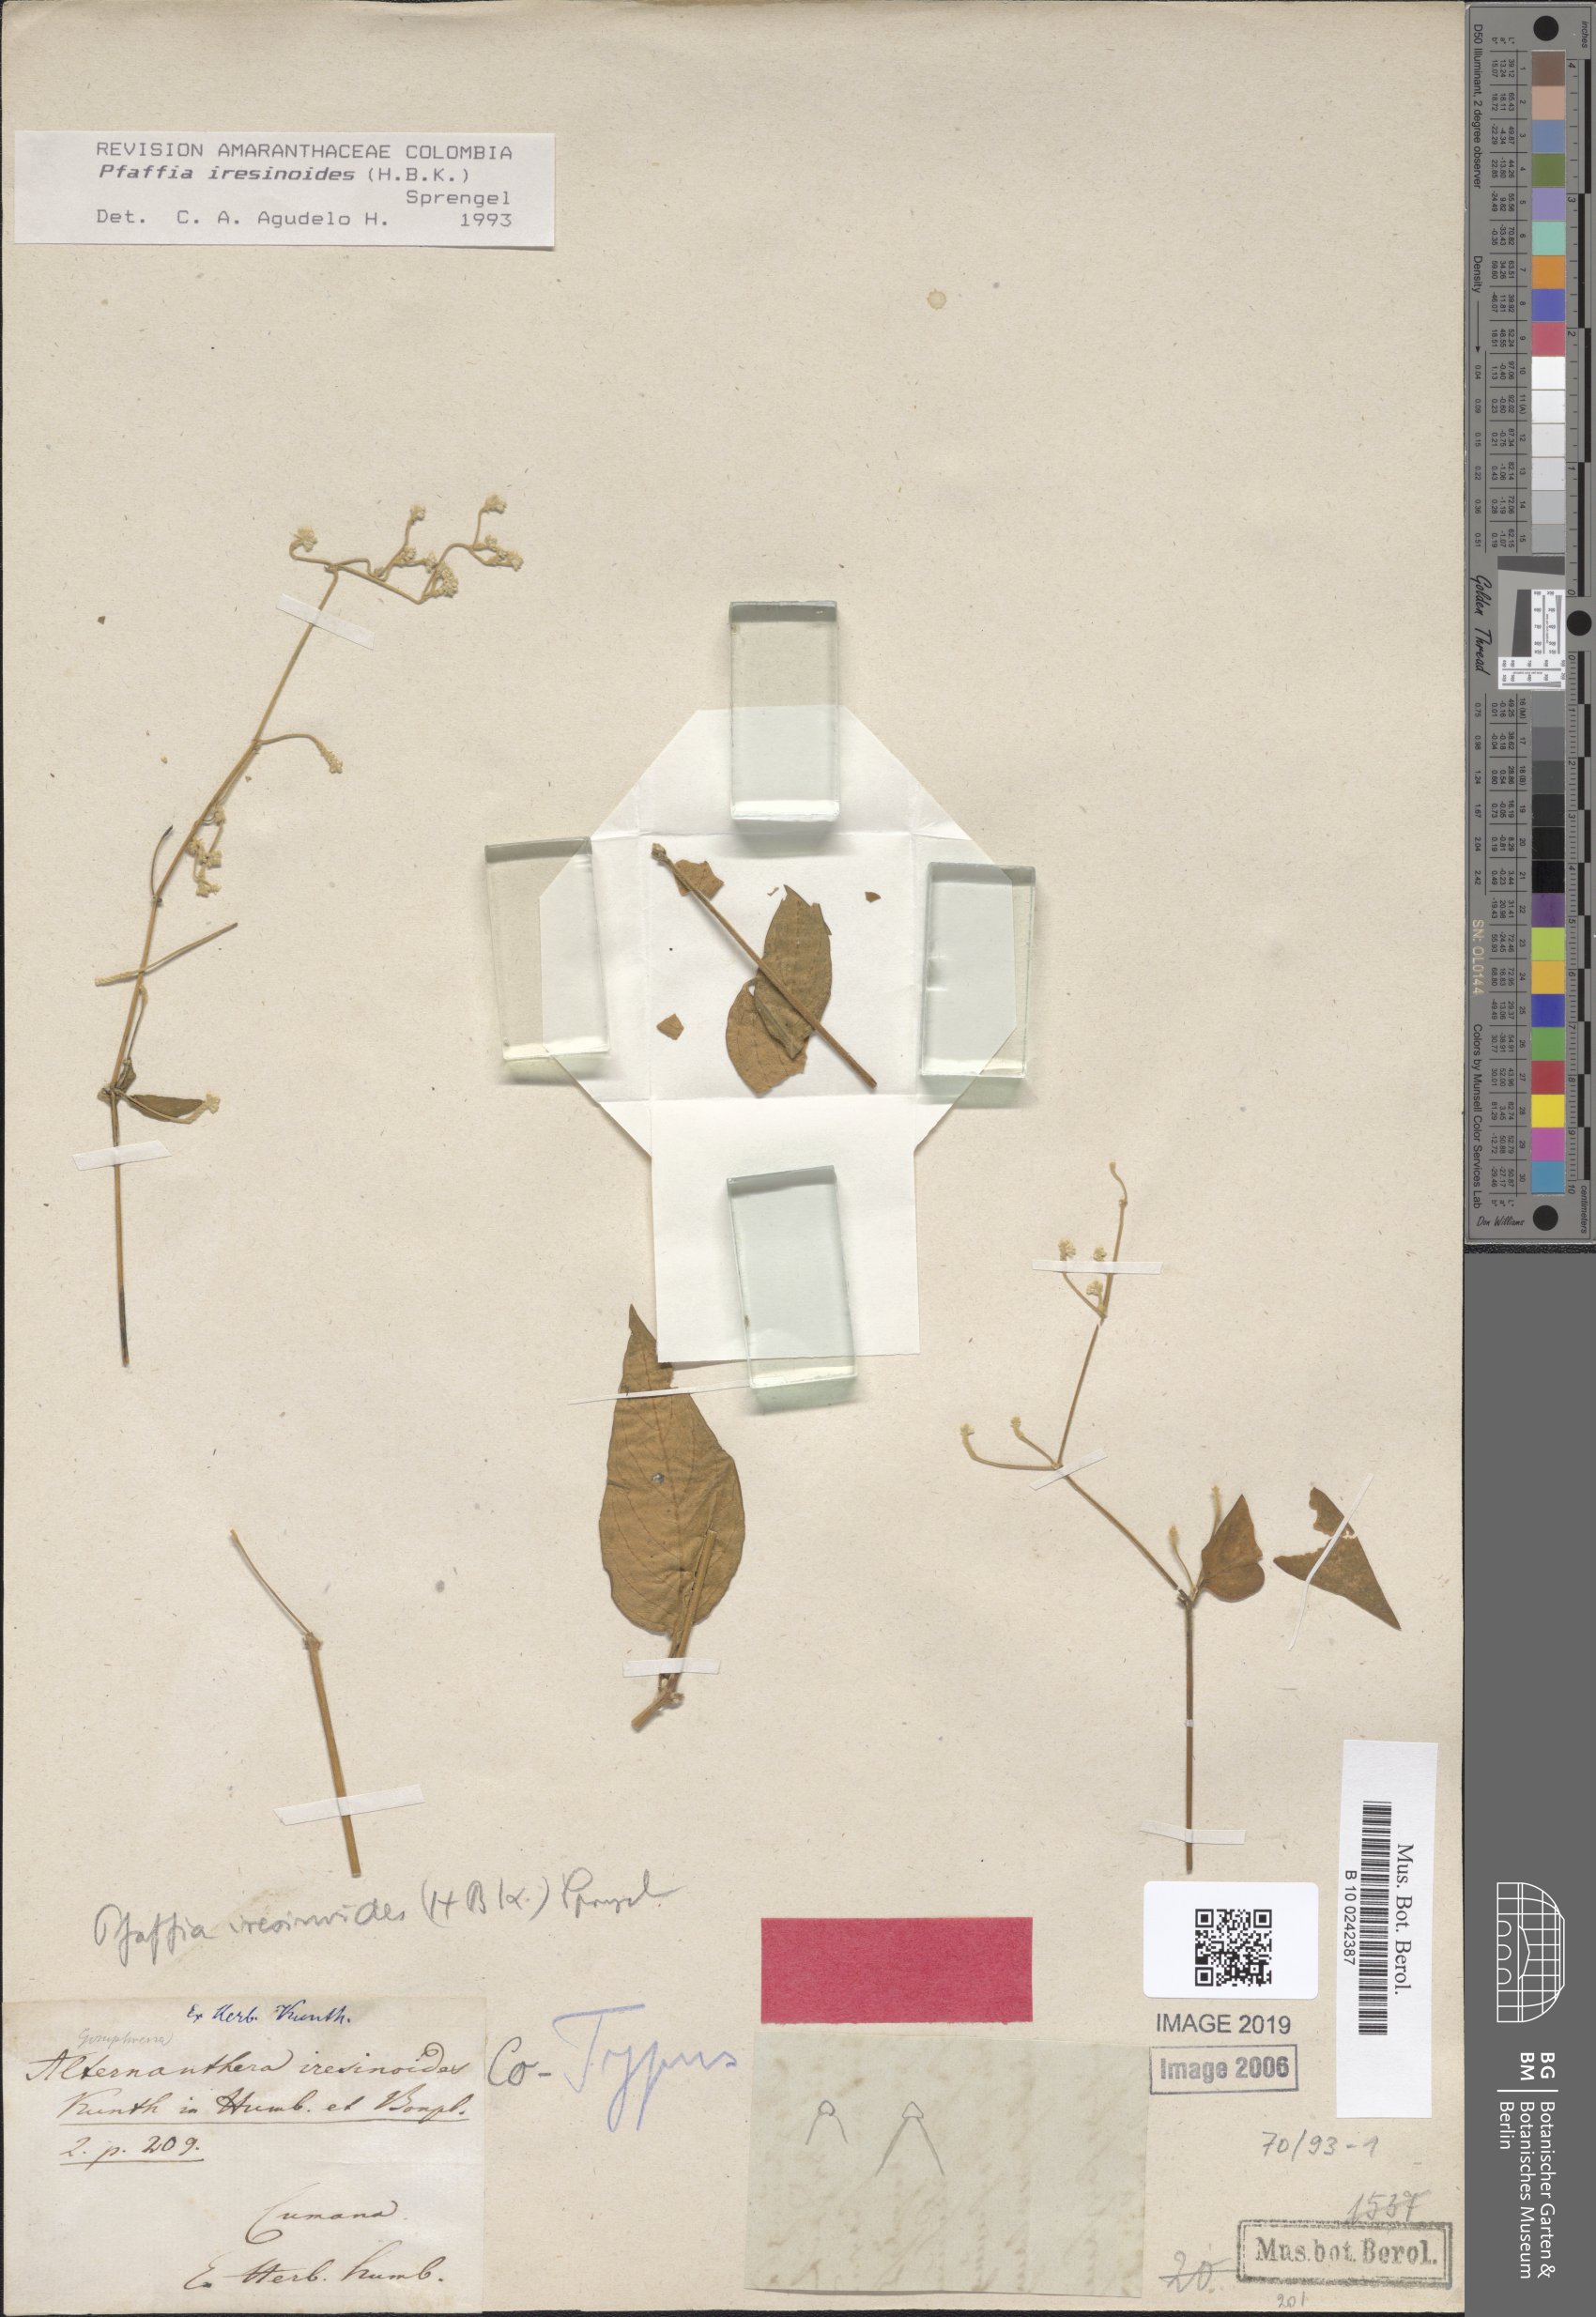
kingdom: Plantae
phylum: Tracheophyta
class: Magnoliopsida
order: Caryophyllales
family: Amaranthaceae
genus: Pfaffia
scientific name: Pfaffia iresinoides
